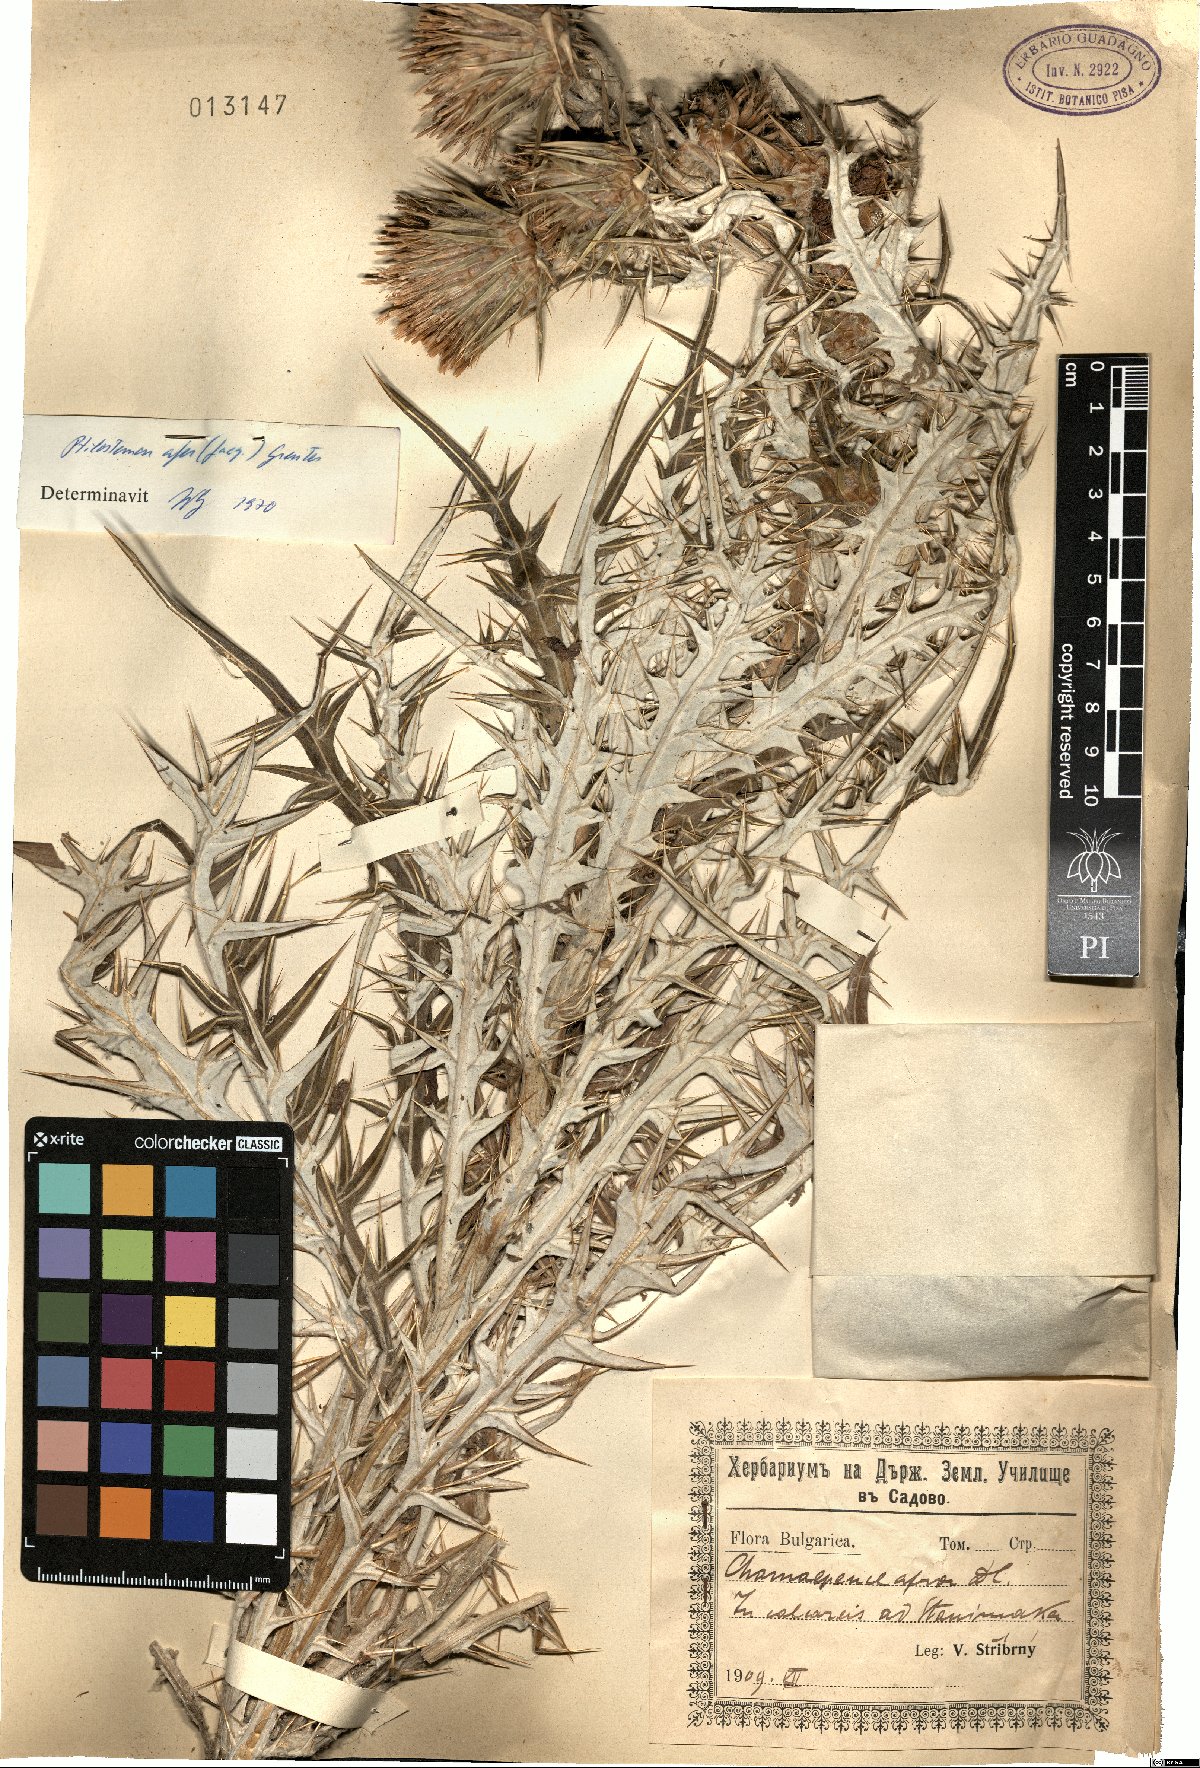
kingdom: Plantae
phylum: Tracheophyta
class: Magnoliopsida
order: Asterales
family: Asteraceae
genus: Ptilostemon
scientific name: Ptilostemon afer
